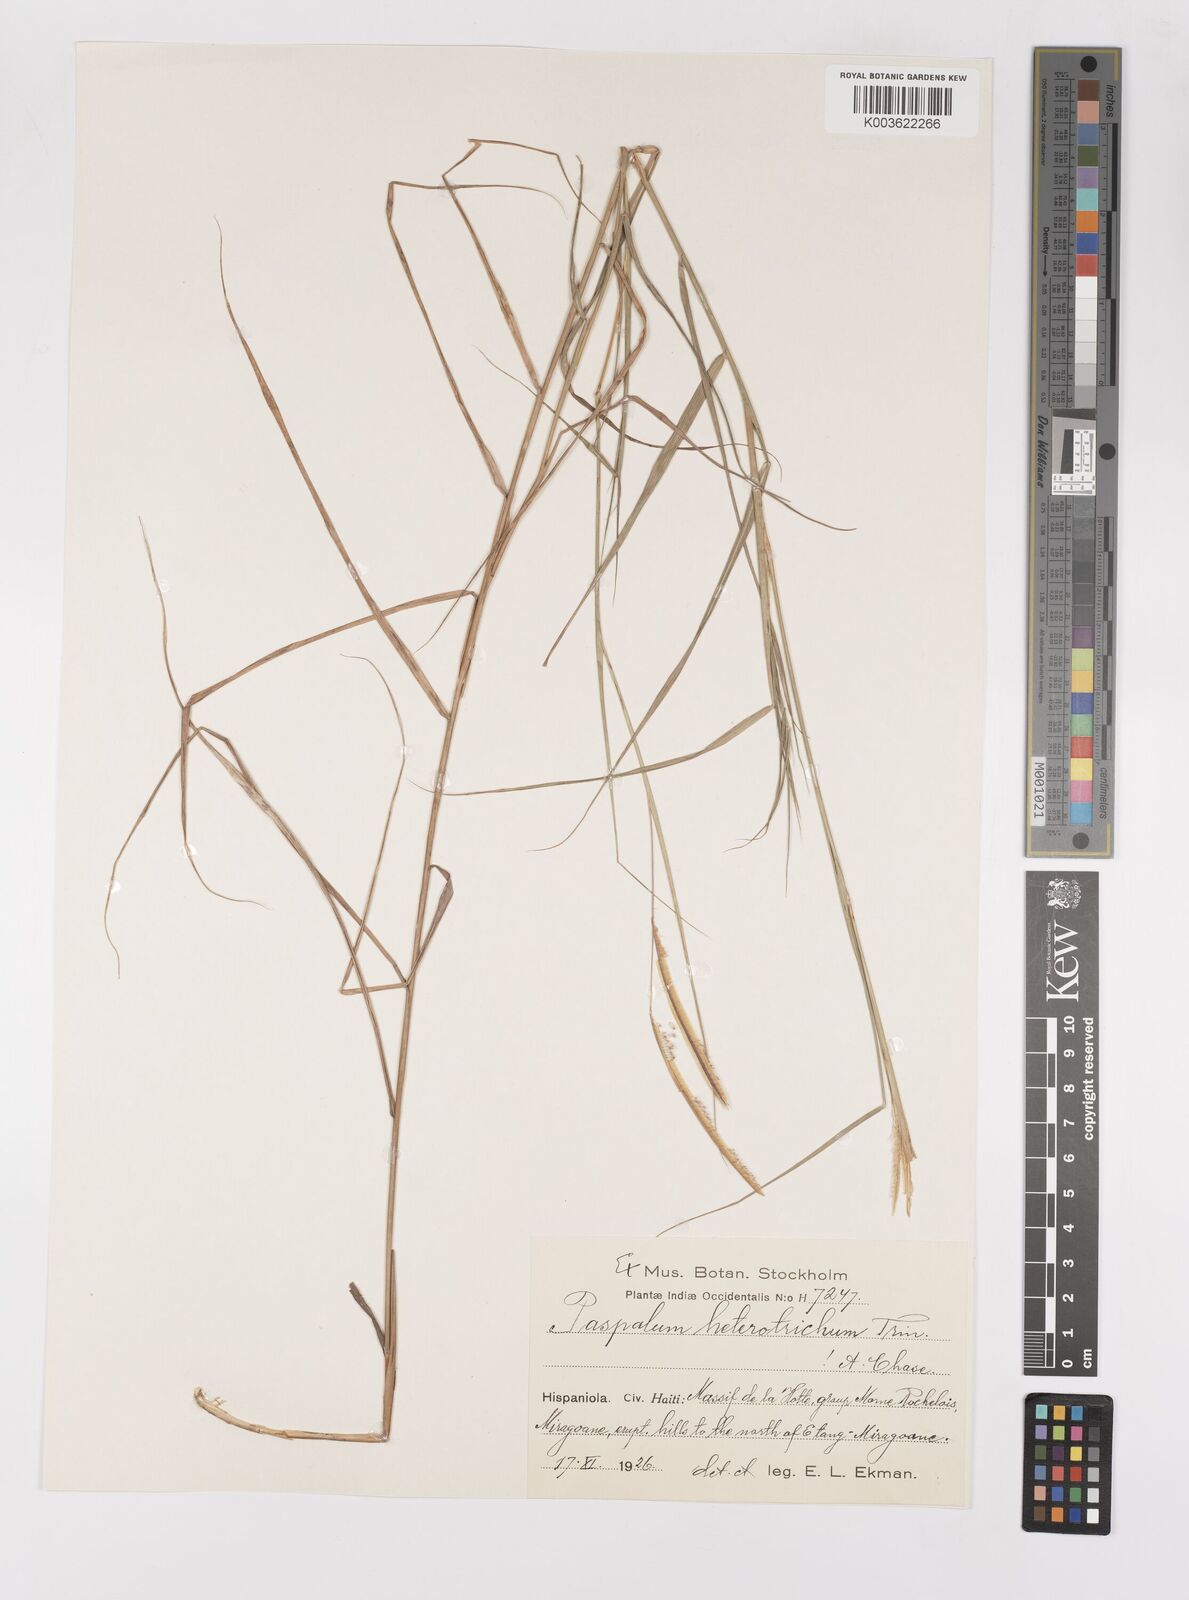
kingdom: Plantae
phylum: Tracheophyta
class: Liliopsida
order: Poales
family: Poaceae
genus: Paspalum
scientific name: Paspalum heterotrichon
